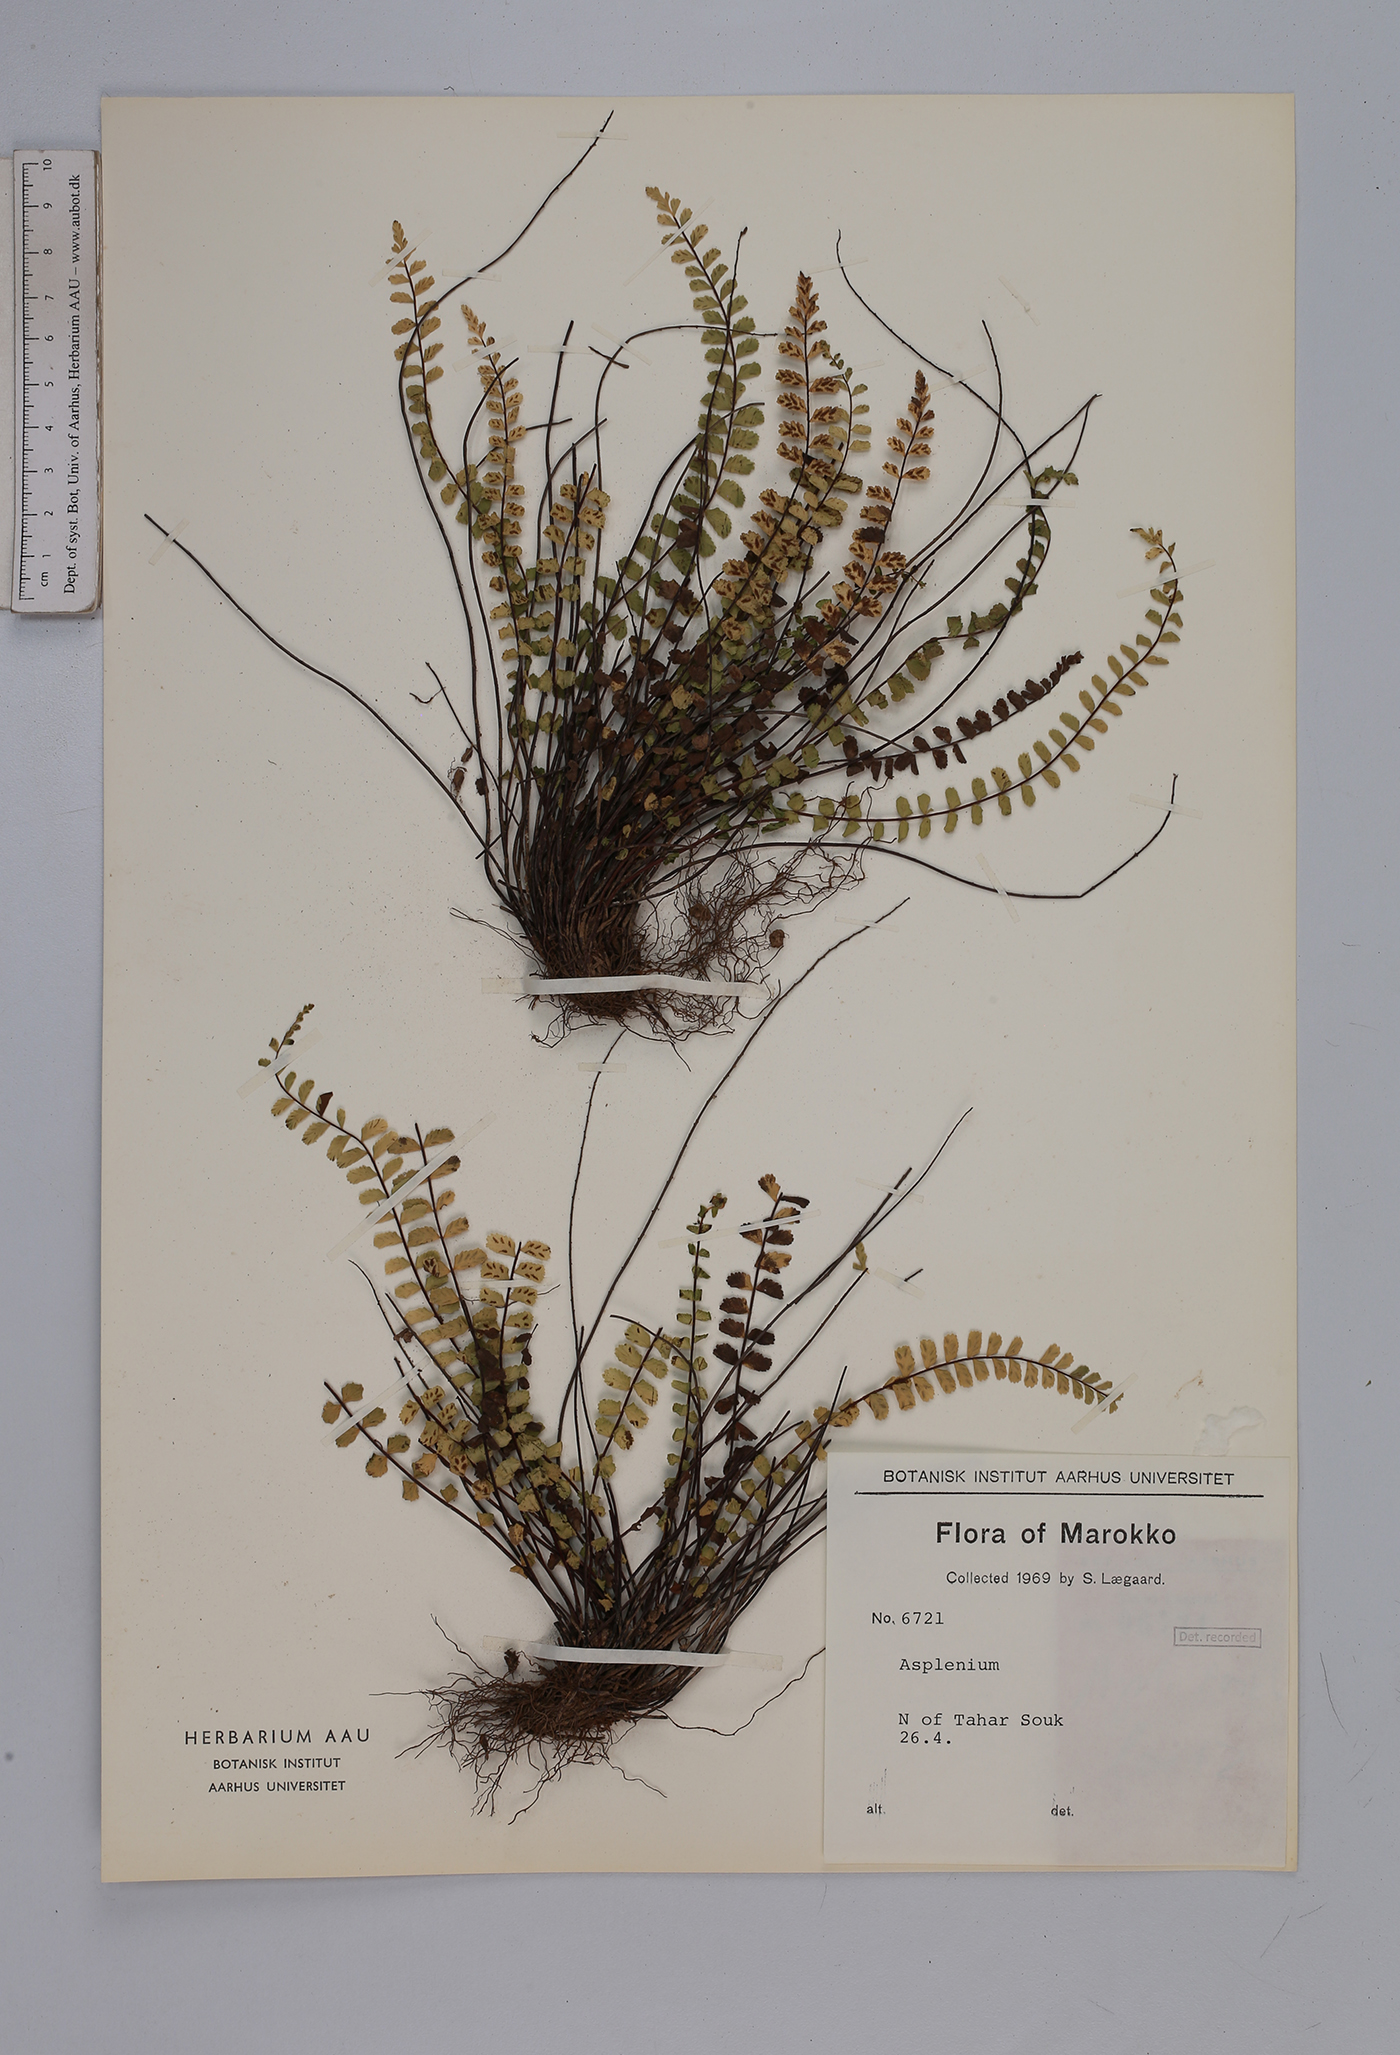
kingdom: Plantae
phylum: Tracheophyta
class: Polypodiopsida
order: Polypodiales
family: Aspleniaceae
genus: Asplenium
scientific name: Asplenium trichomanes
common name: Maidenhair spleenwort
